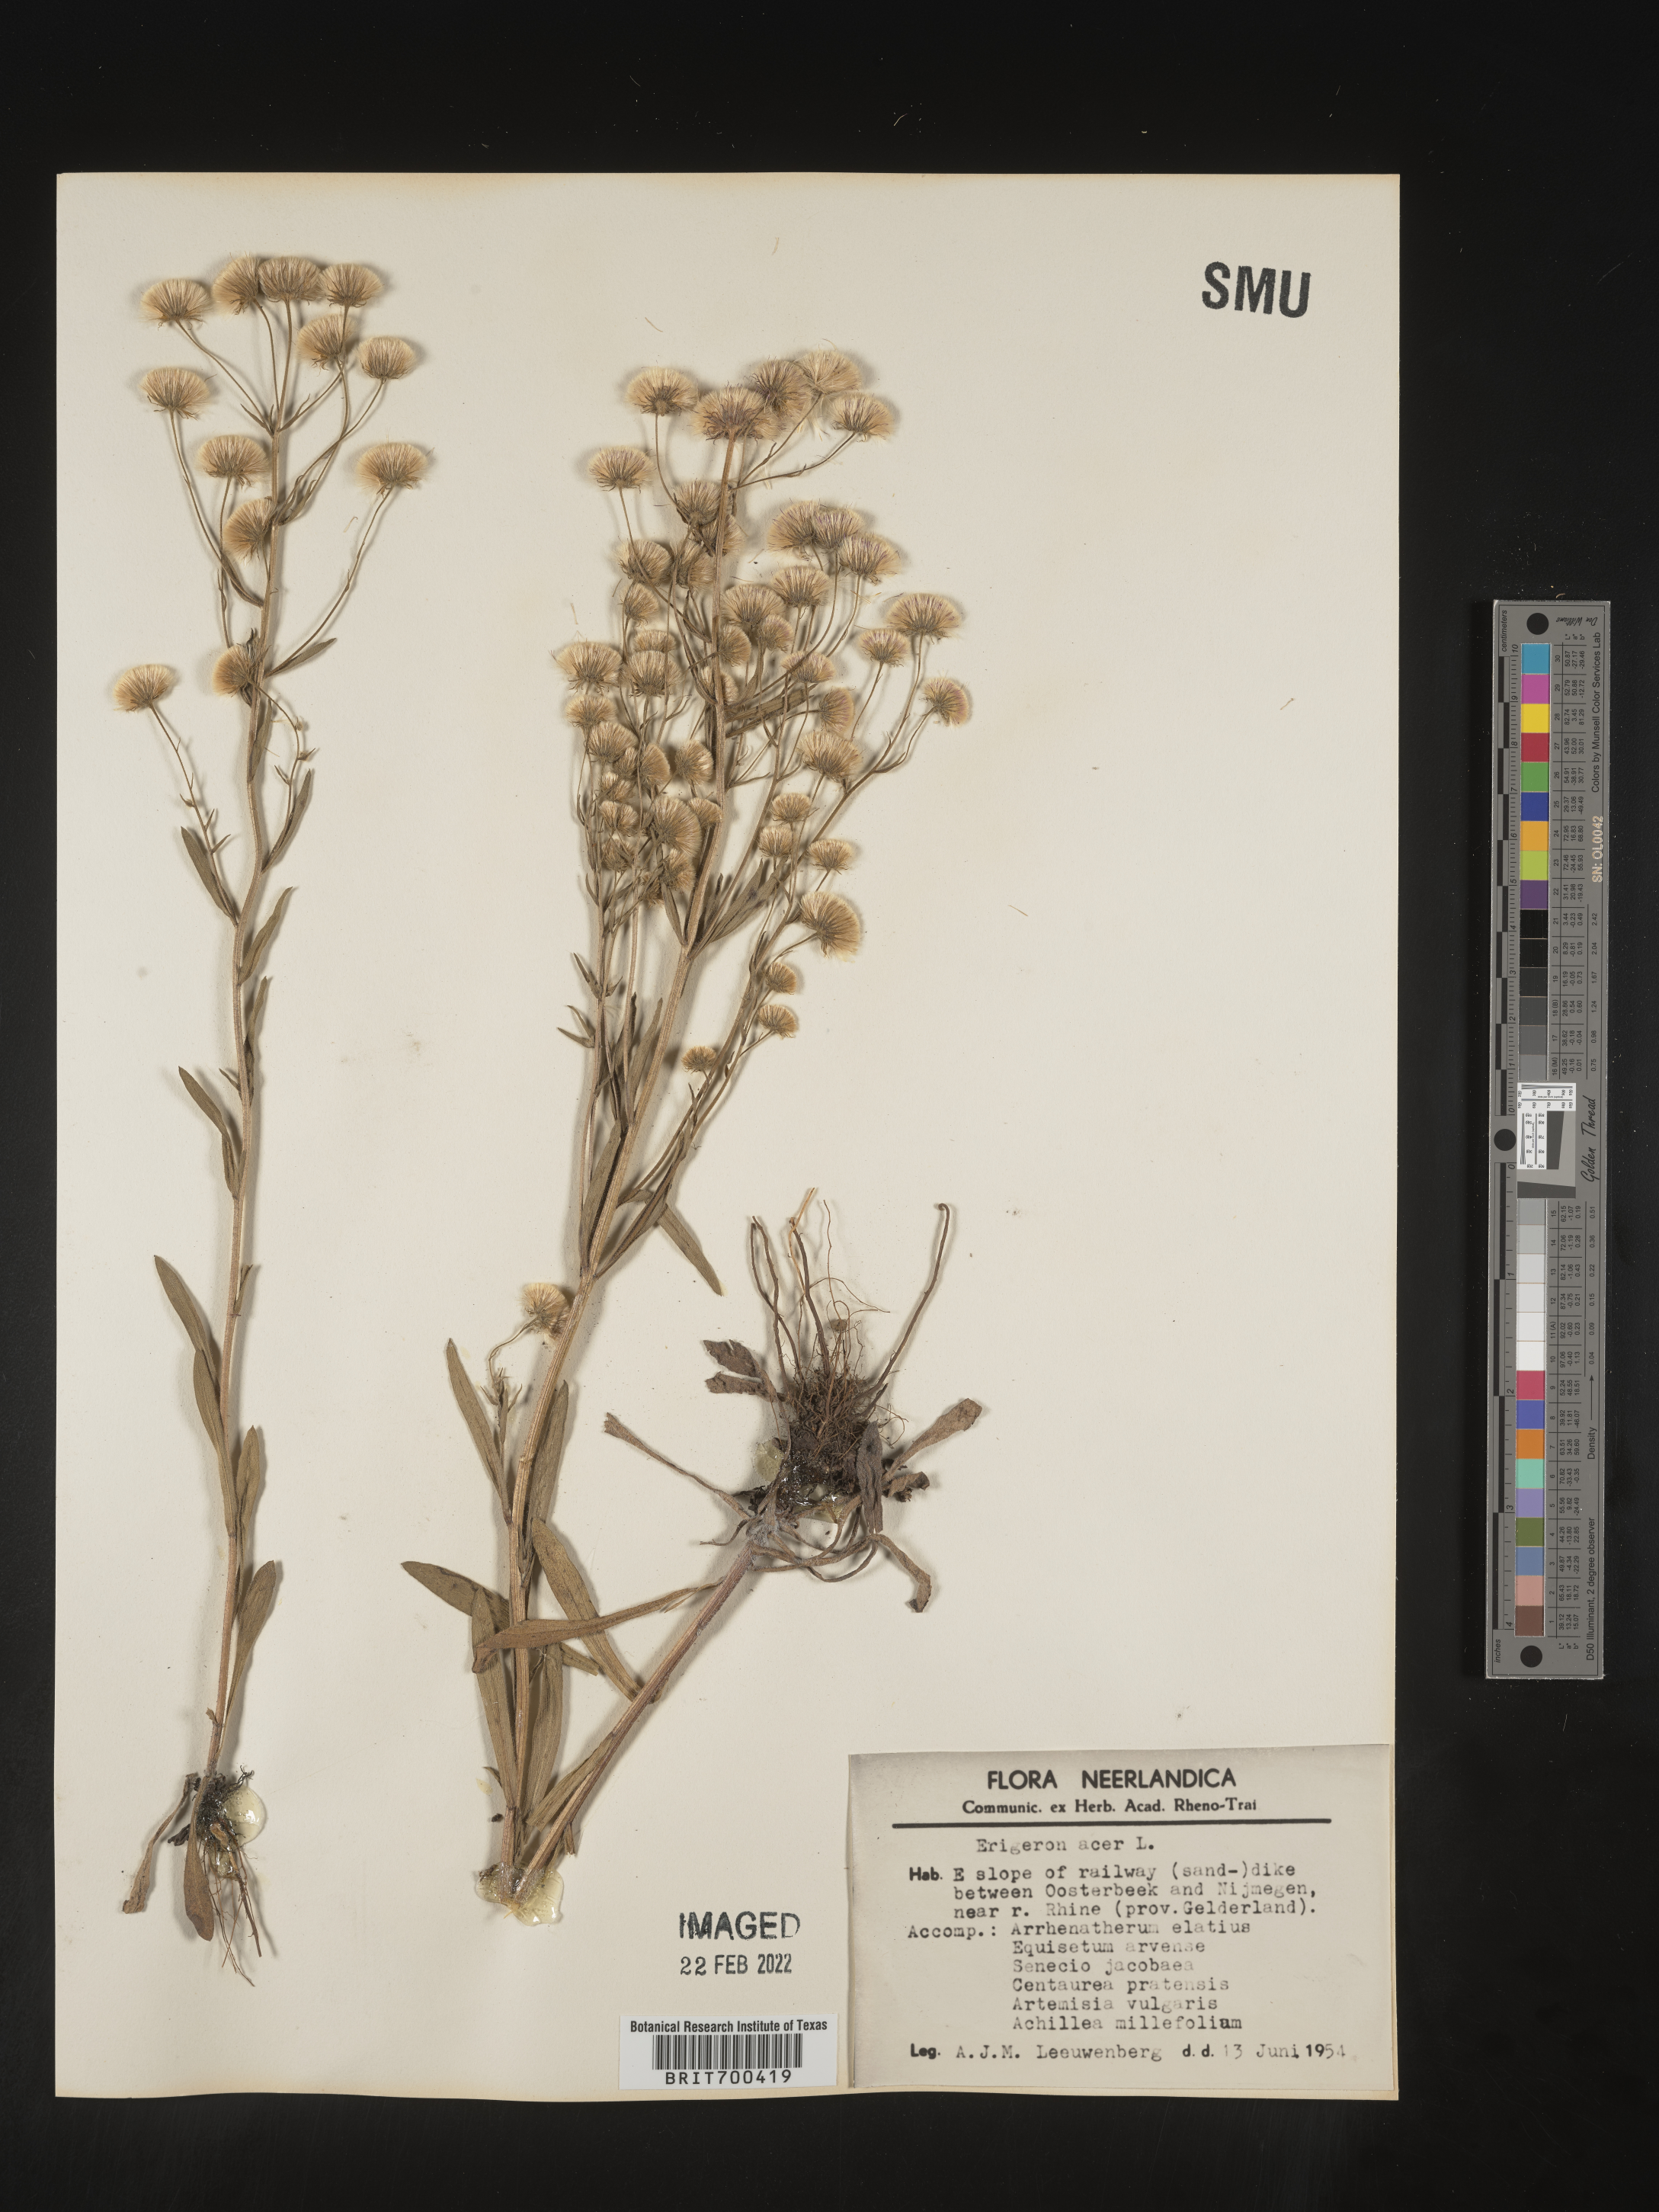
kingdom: Plantae
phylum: Tracheophyta
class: Magnoliopsida
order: Asterales
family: Asteraceae
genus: Erigeron
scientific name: Erigeron
